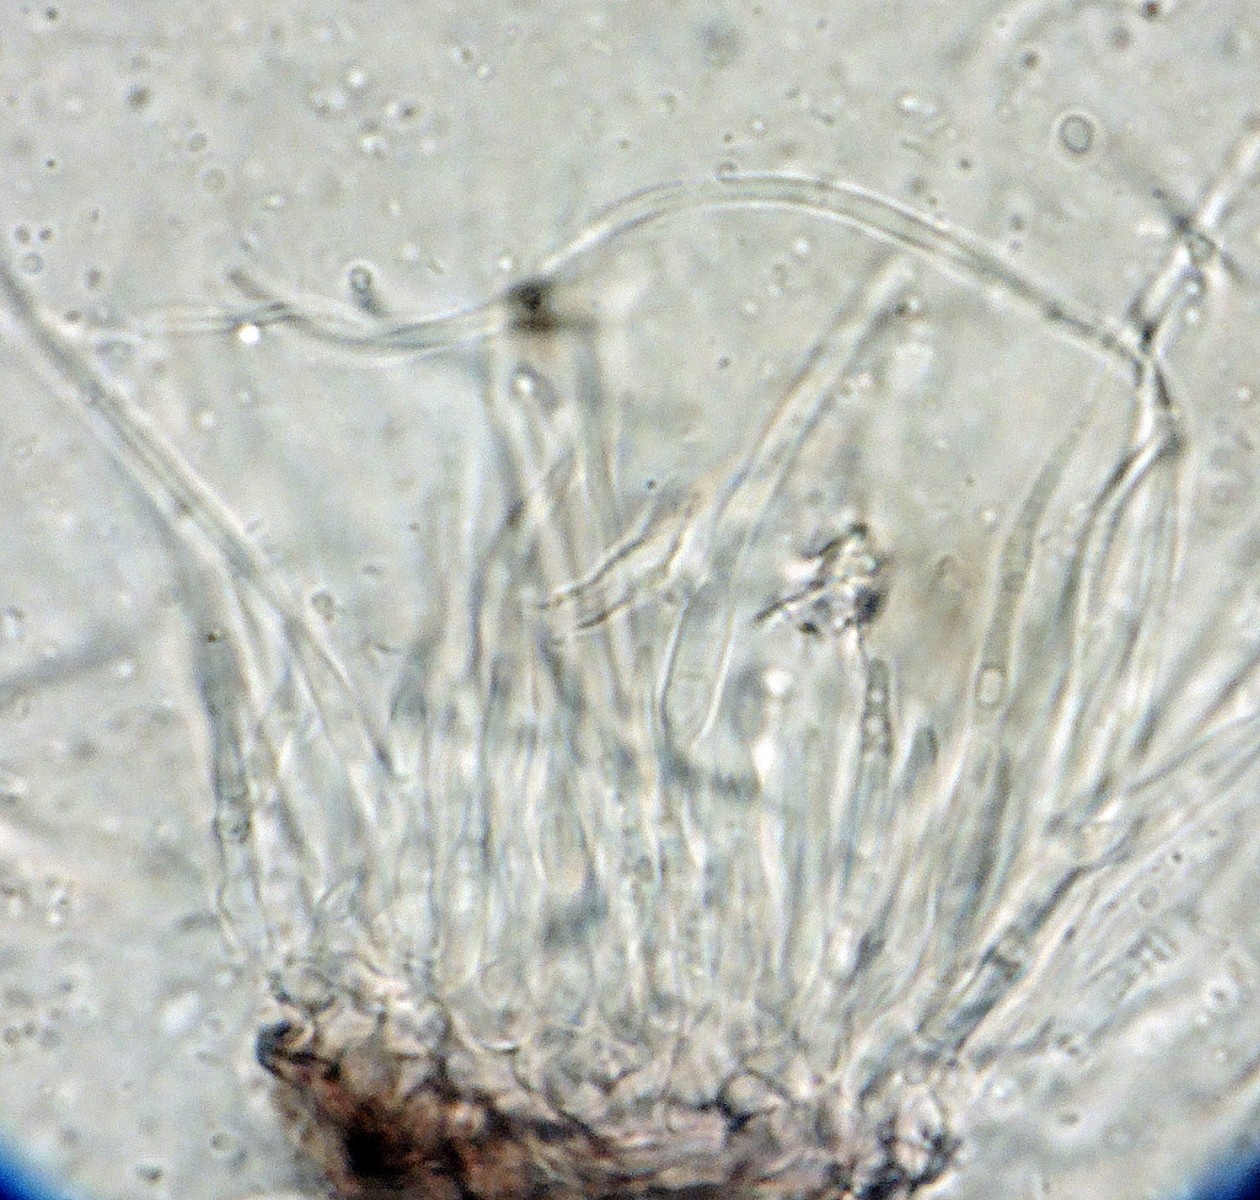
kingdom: Fungi
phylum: Ascomycota
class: Dothideomycetes
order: Mycosphaerellales
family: Mycosphaerellaceae
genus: Septoria
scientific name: Septoria
